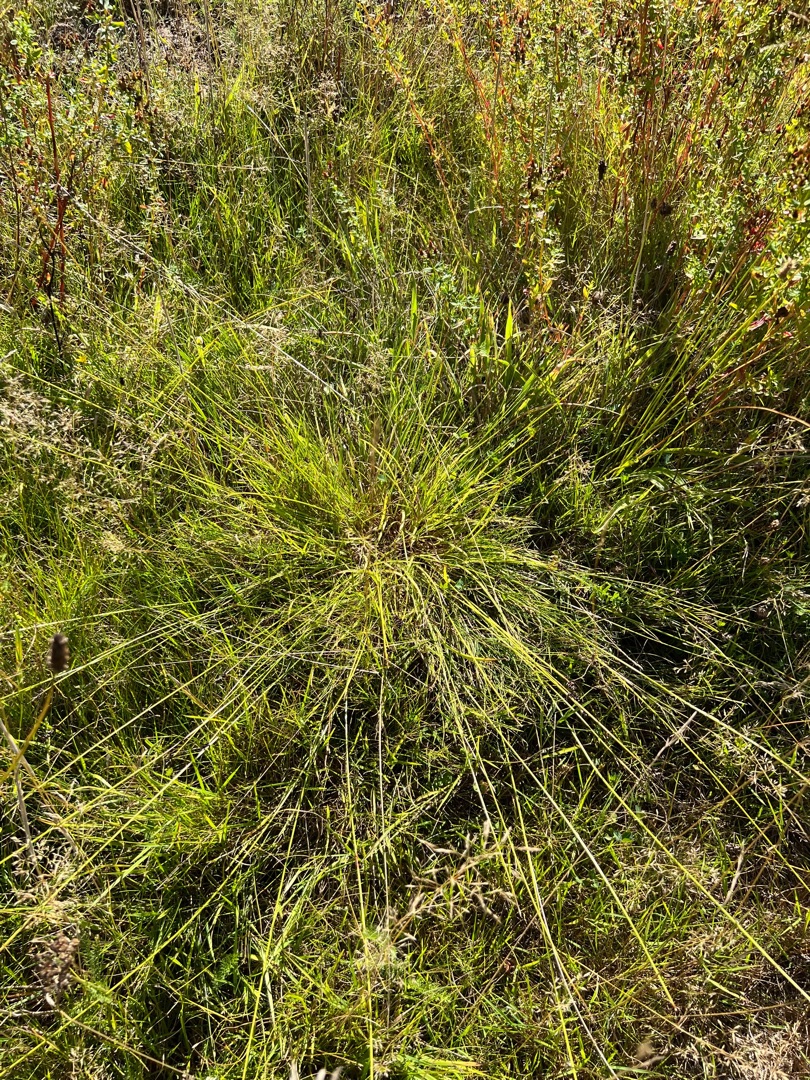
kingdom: Plantae
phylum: Tracheophyta
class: Liliopsida
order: Poales
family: Cyperaceae
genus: Carex
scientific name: Carex pairae
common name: Pigget star
